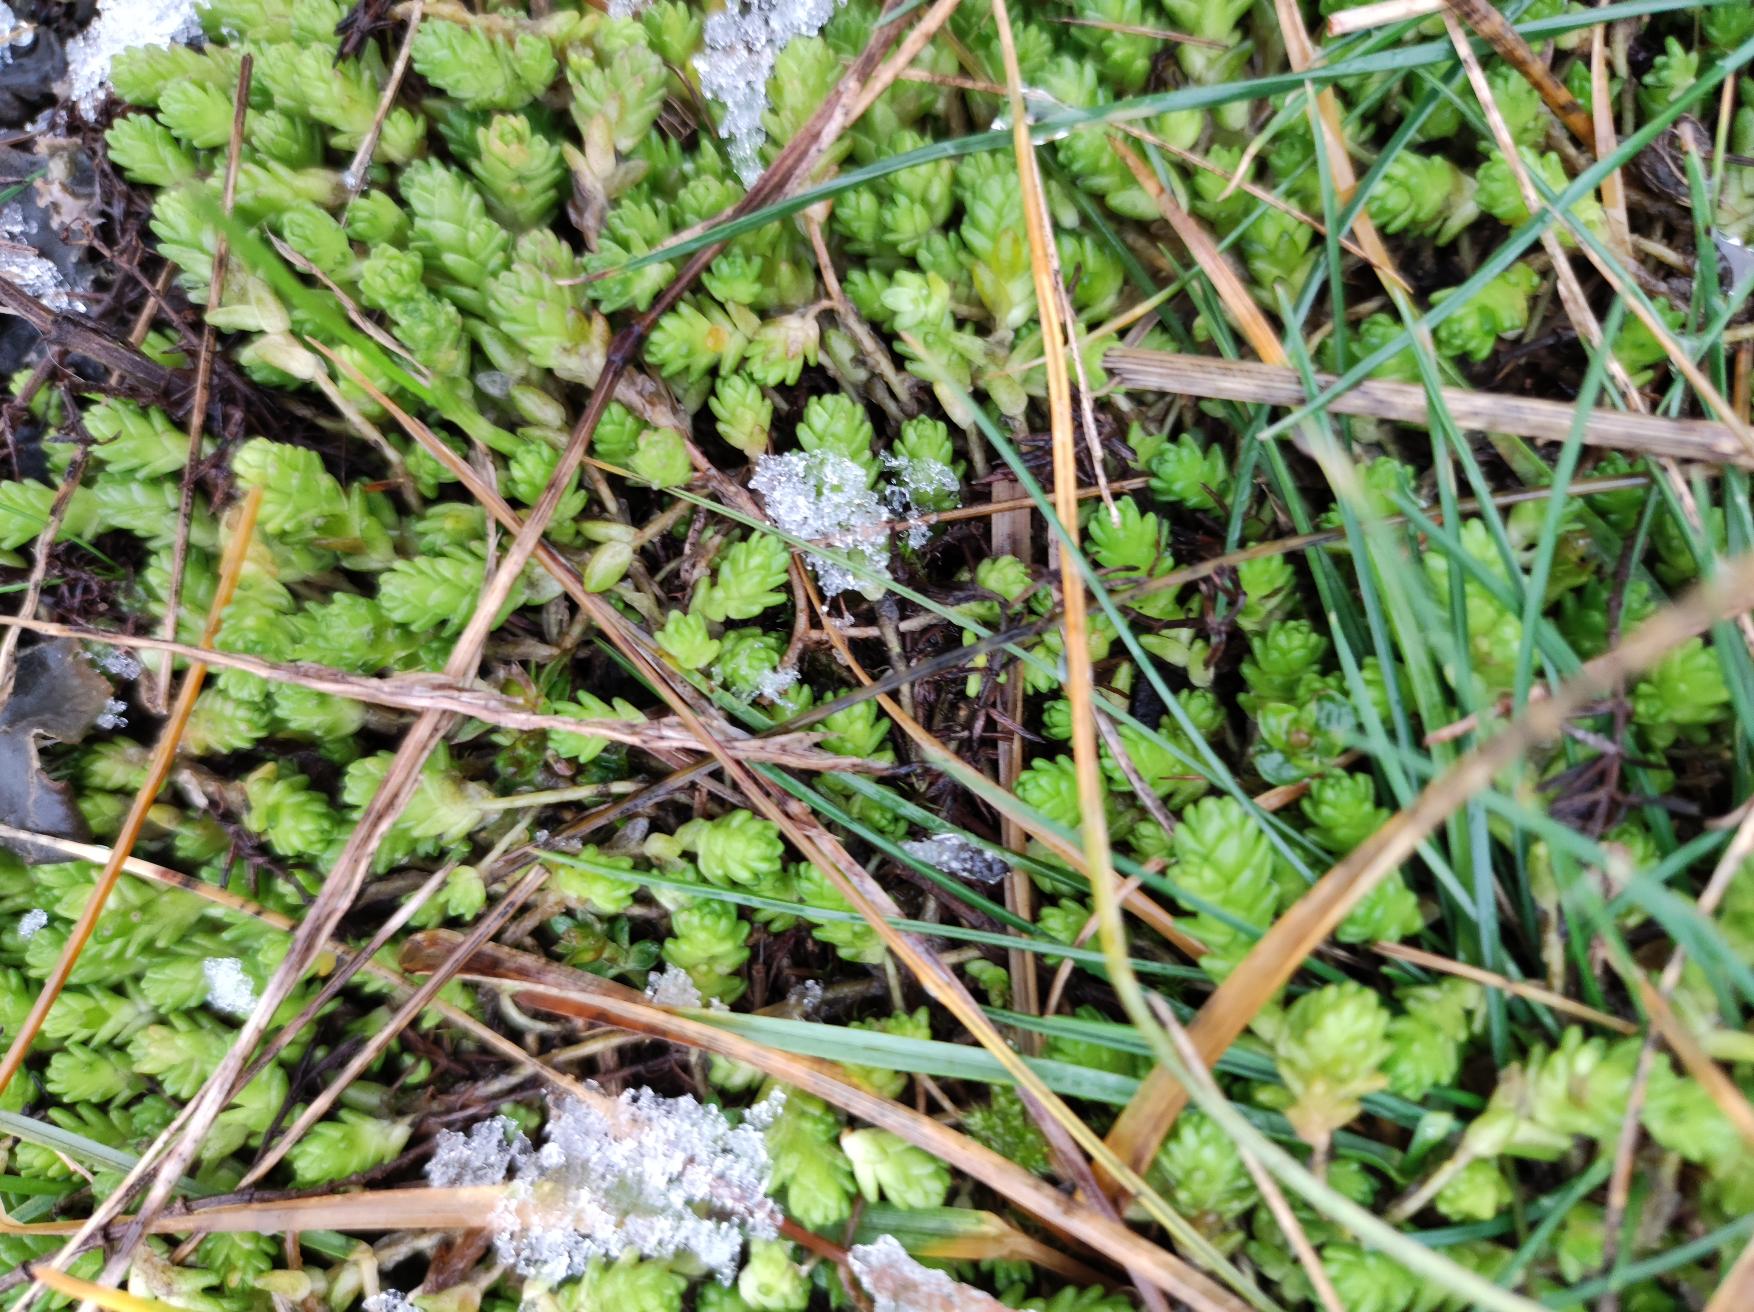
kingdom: Plantae
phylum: Tracheophyta
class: Magnoliopsida
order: Saxifragales
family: Crassulaceae
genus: Sedum
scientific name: Sedum acre
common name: Bidende stenurt
